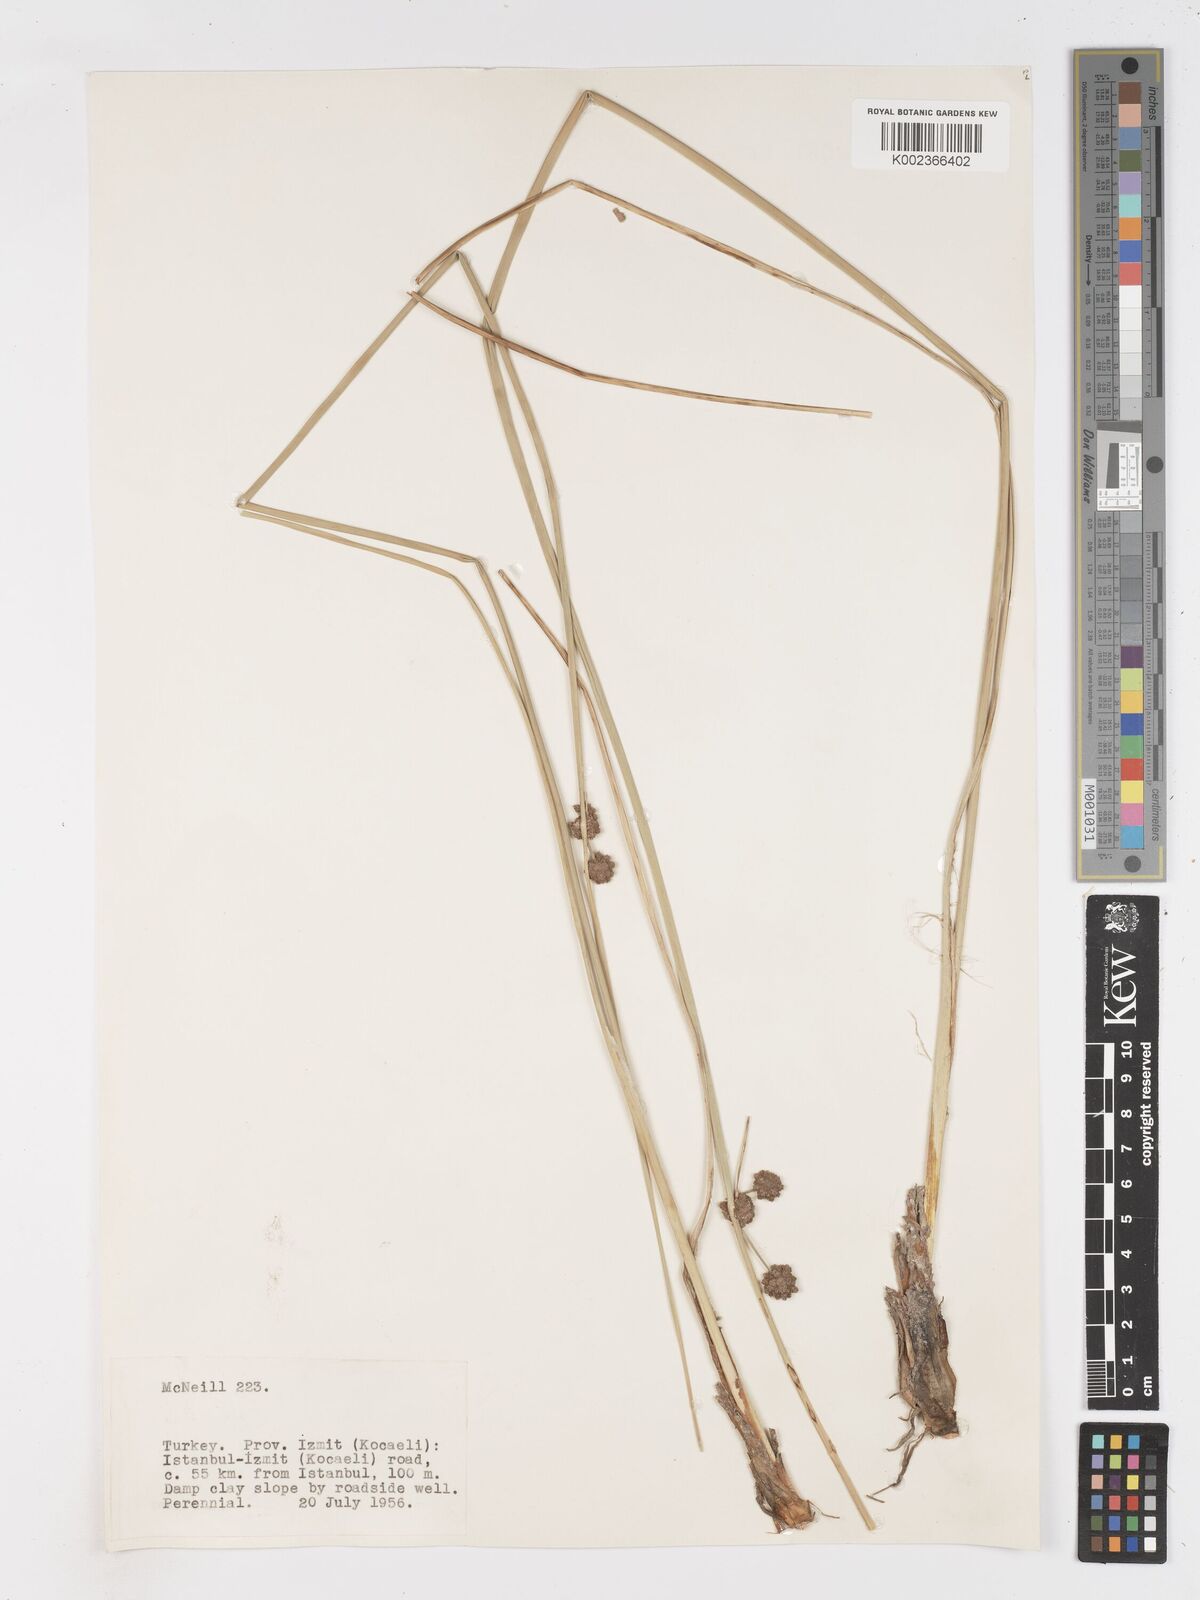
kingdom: Plantae
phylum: Tracheophyta
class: Liliopsida
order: Poales
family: Cyperaceae
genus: Scirpoides
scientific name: Scirpoides holoschoenus
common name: Round-headed club-rush
